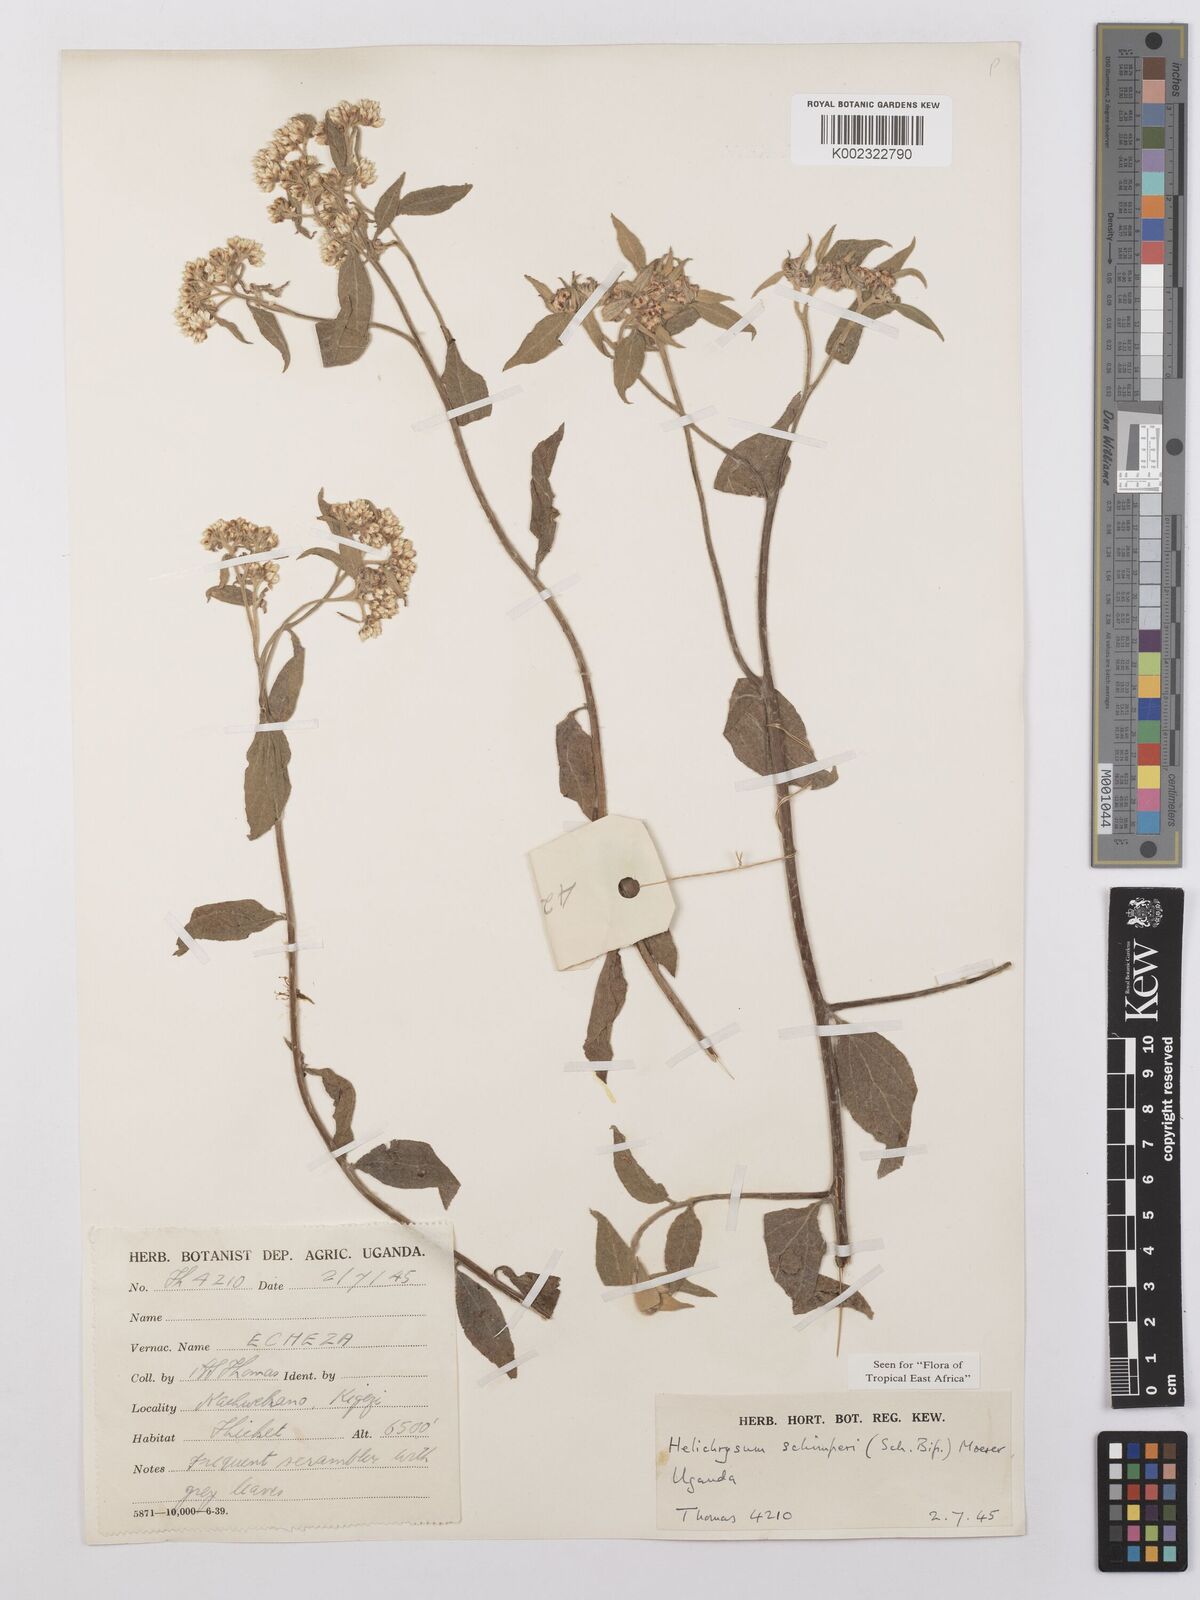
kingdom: Plantae
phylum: Tracheophyta
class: Magnoliopsida
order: Asterales
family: Asteraceae
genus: Helichrysum
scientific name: Helichrysum schimperi
